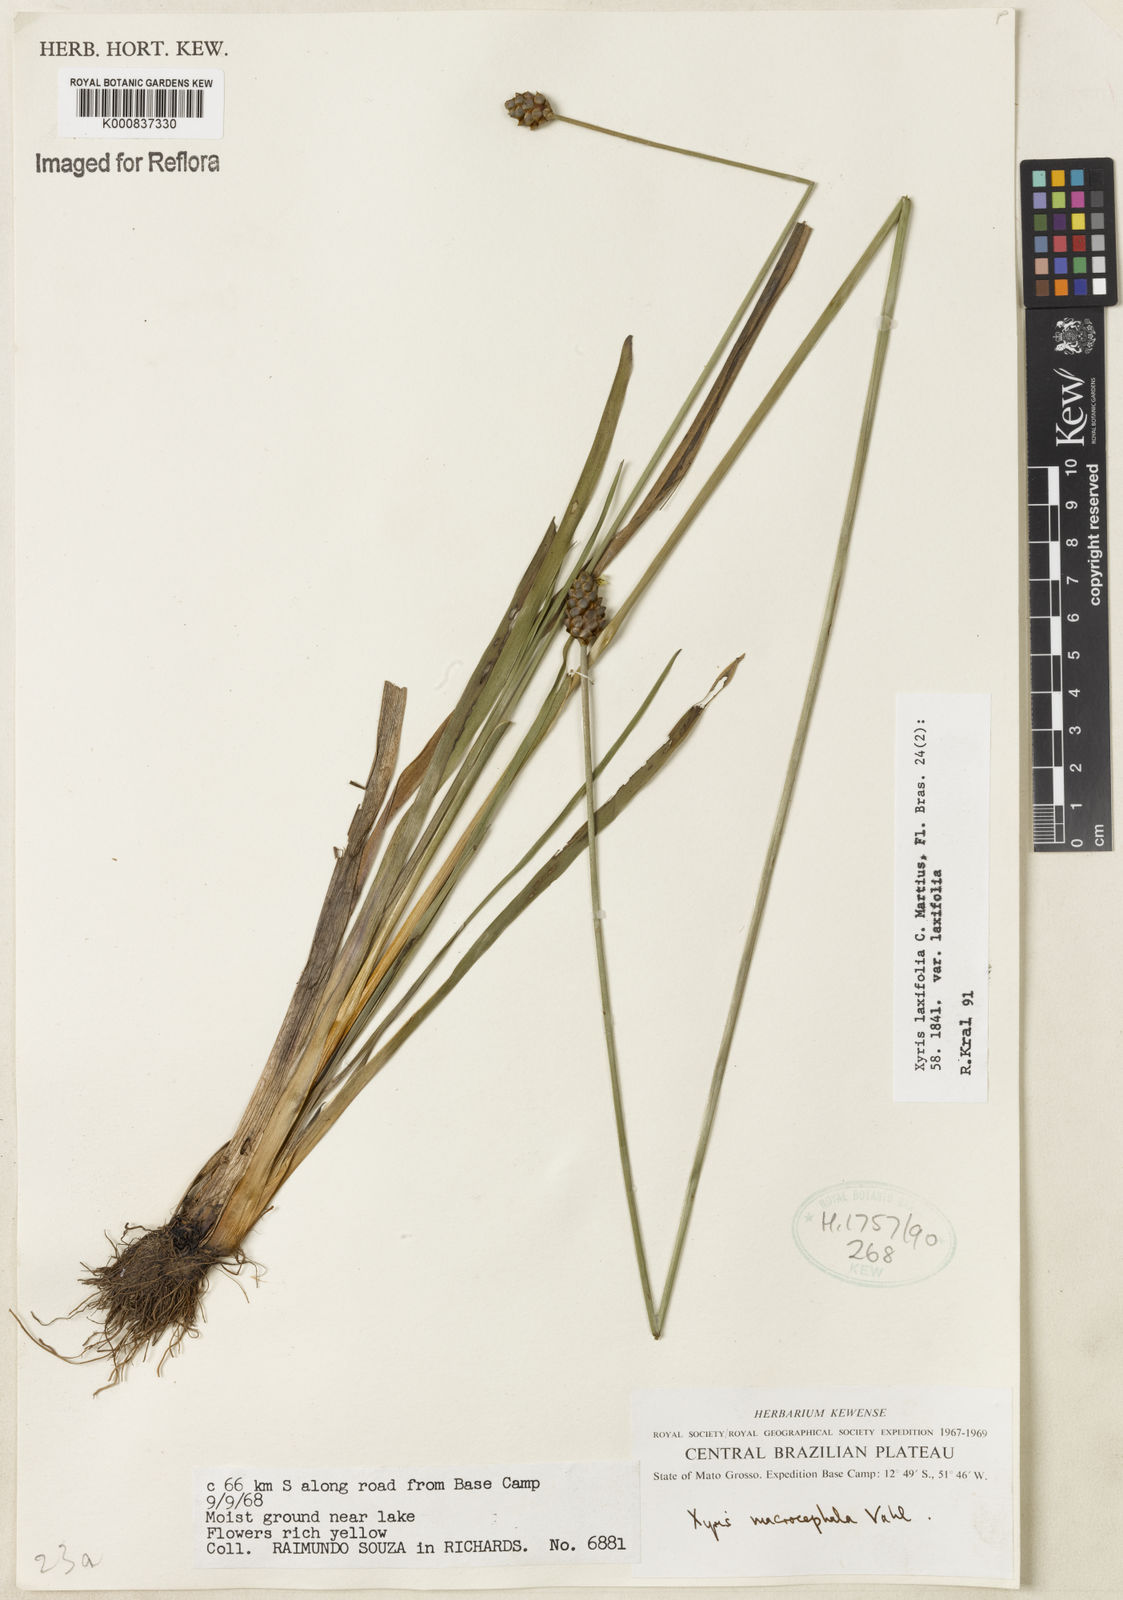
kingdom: Plantae
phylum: Tracheophyta
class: Liliopsida
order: Poales
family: Xyridaceae
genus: Xyris
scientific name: Xyris laxifolia
